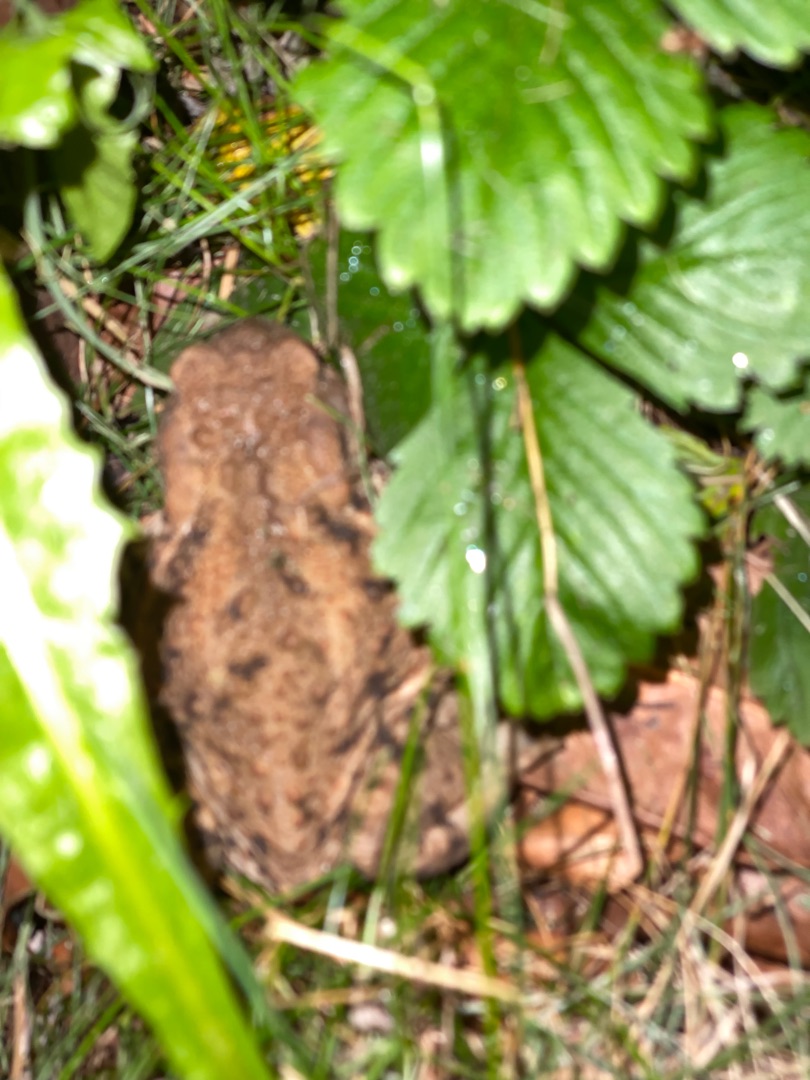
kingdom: Animalia
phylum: Chordata
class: Amphibia
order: Anura
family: Bufonidae
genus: Bufo
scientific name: Bufo bufo
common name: Skrubtudse
